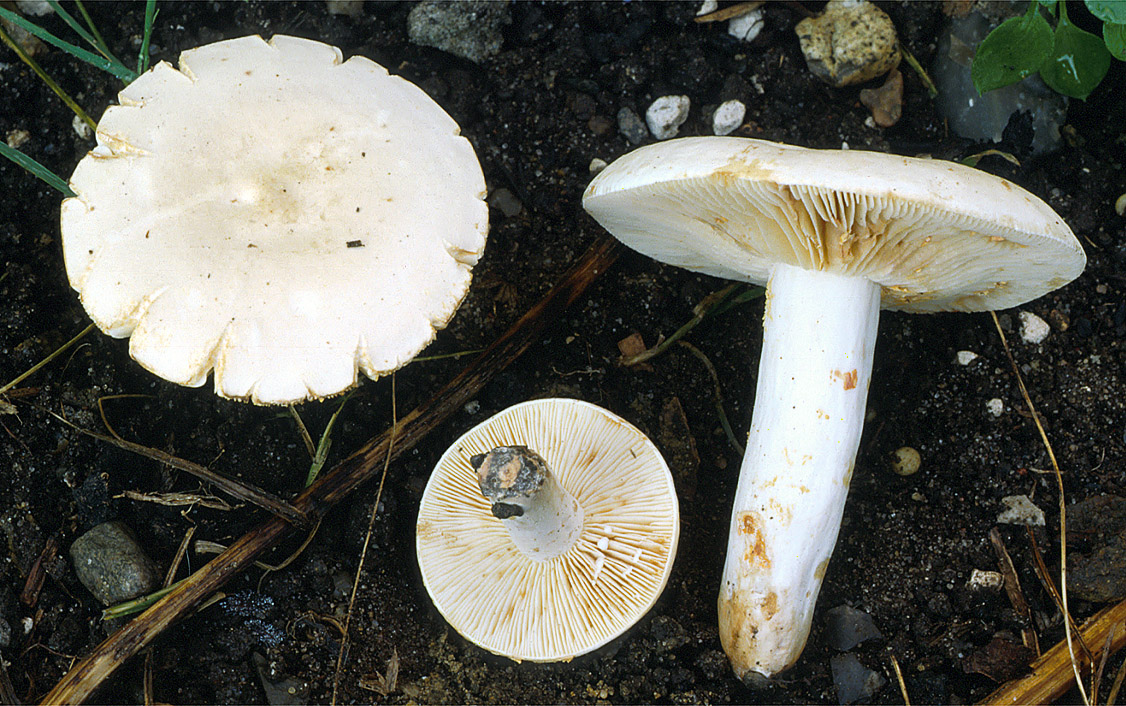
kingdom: Fungi
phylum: Basidiomycota
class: Agaricomycetes
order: Russulales
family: Russulaceae
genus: Lactarius
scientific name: Lactarius azonites
